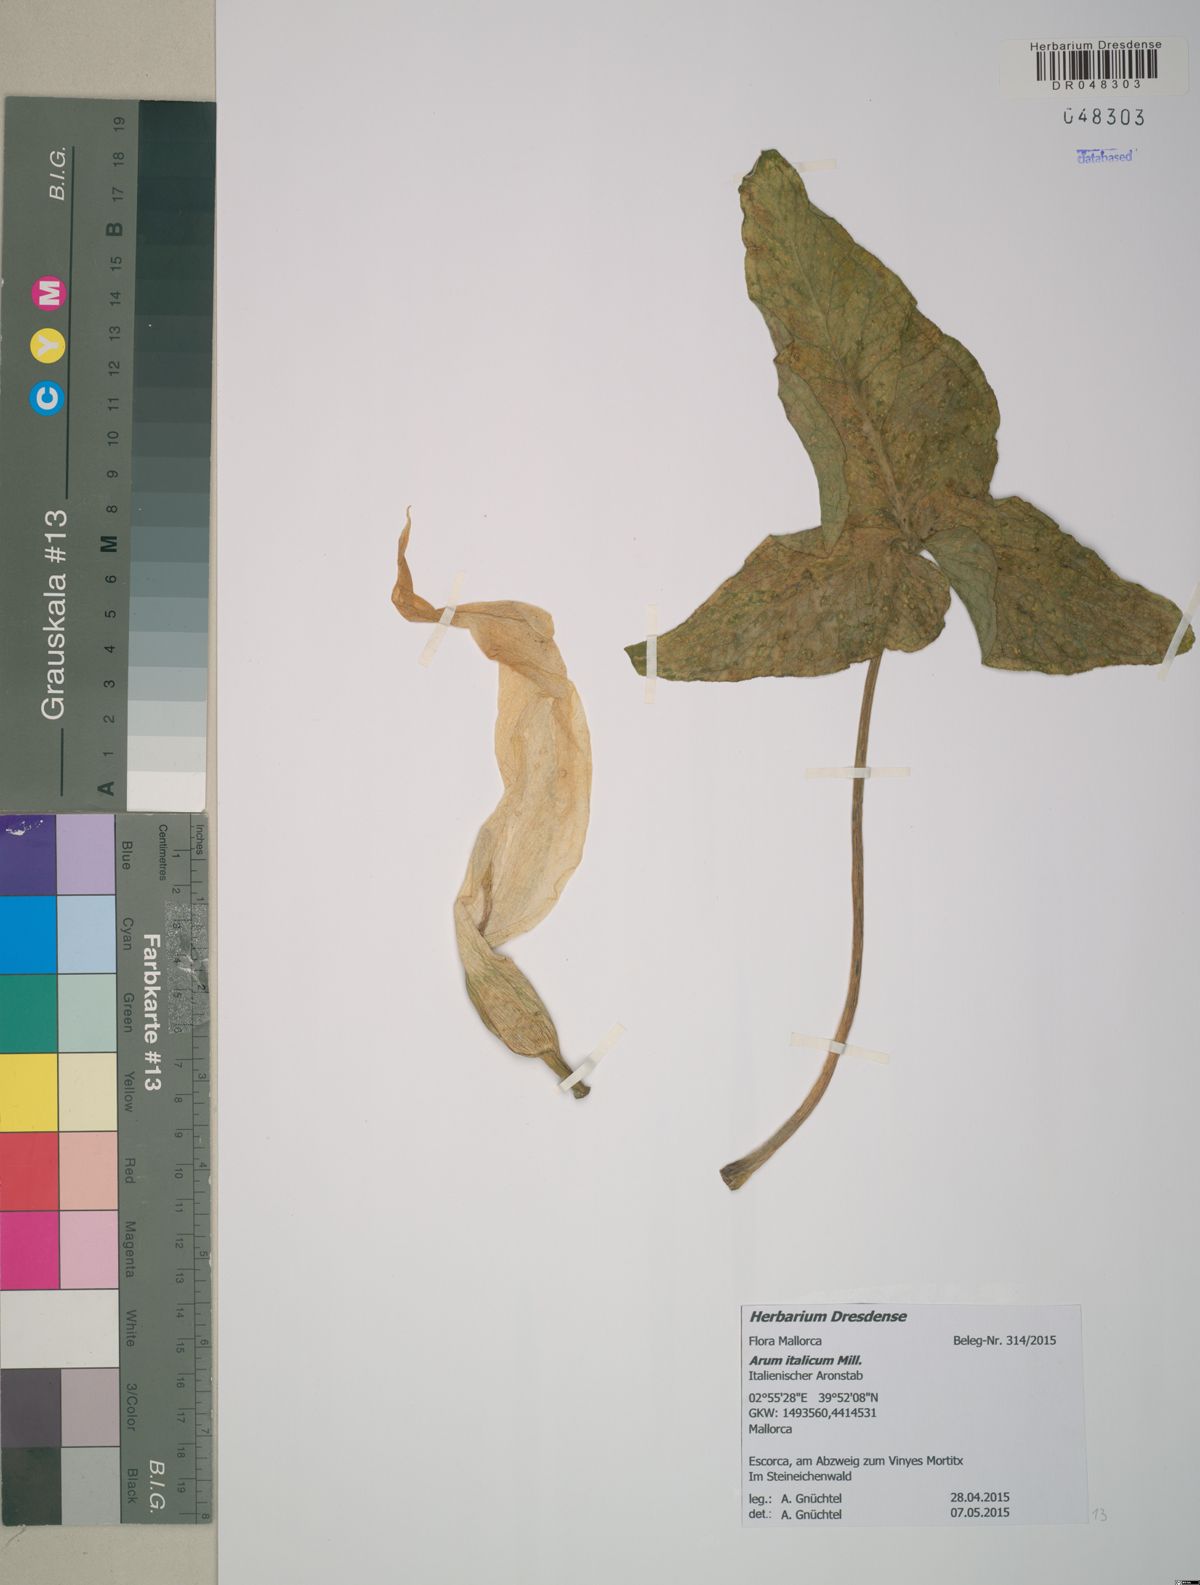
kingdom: Plantae
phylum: Tracheophyta
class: Liliopsida
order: Alismatales
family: Araceae
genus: Arum
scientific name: Arum italicum
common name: Italian lords-and-ladies
